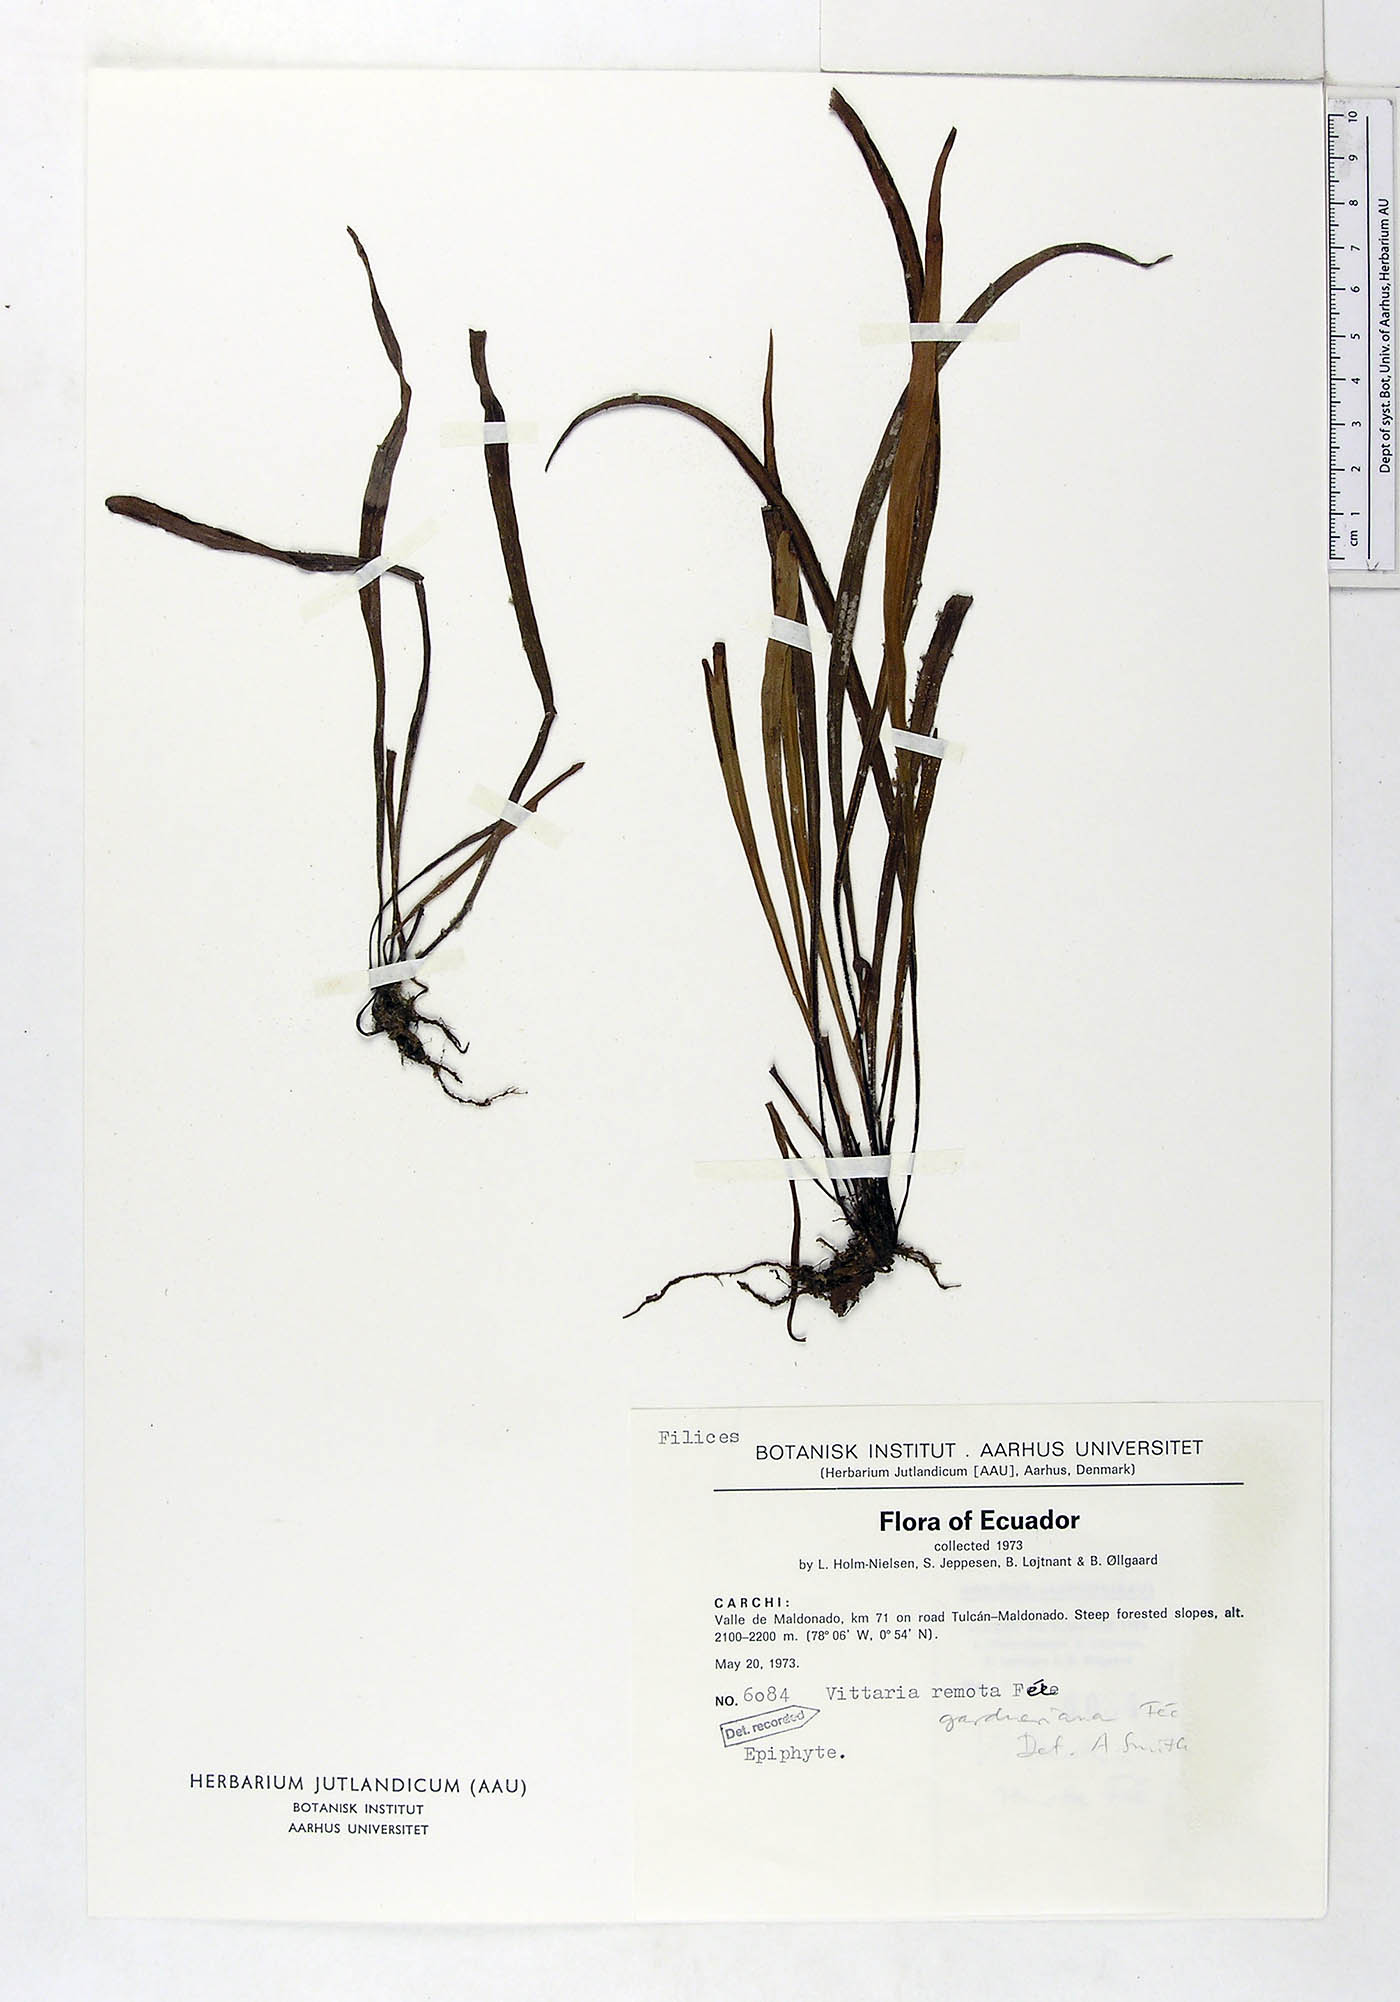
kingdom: Plantae
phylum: Tracheophyta
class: Polypodiopsida
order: Polypodiales
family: Pteridaceae
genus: Radiovittaria
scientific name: Radiovittaria gardneriana
